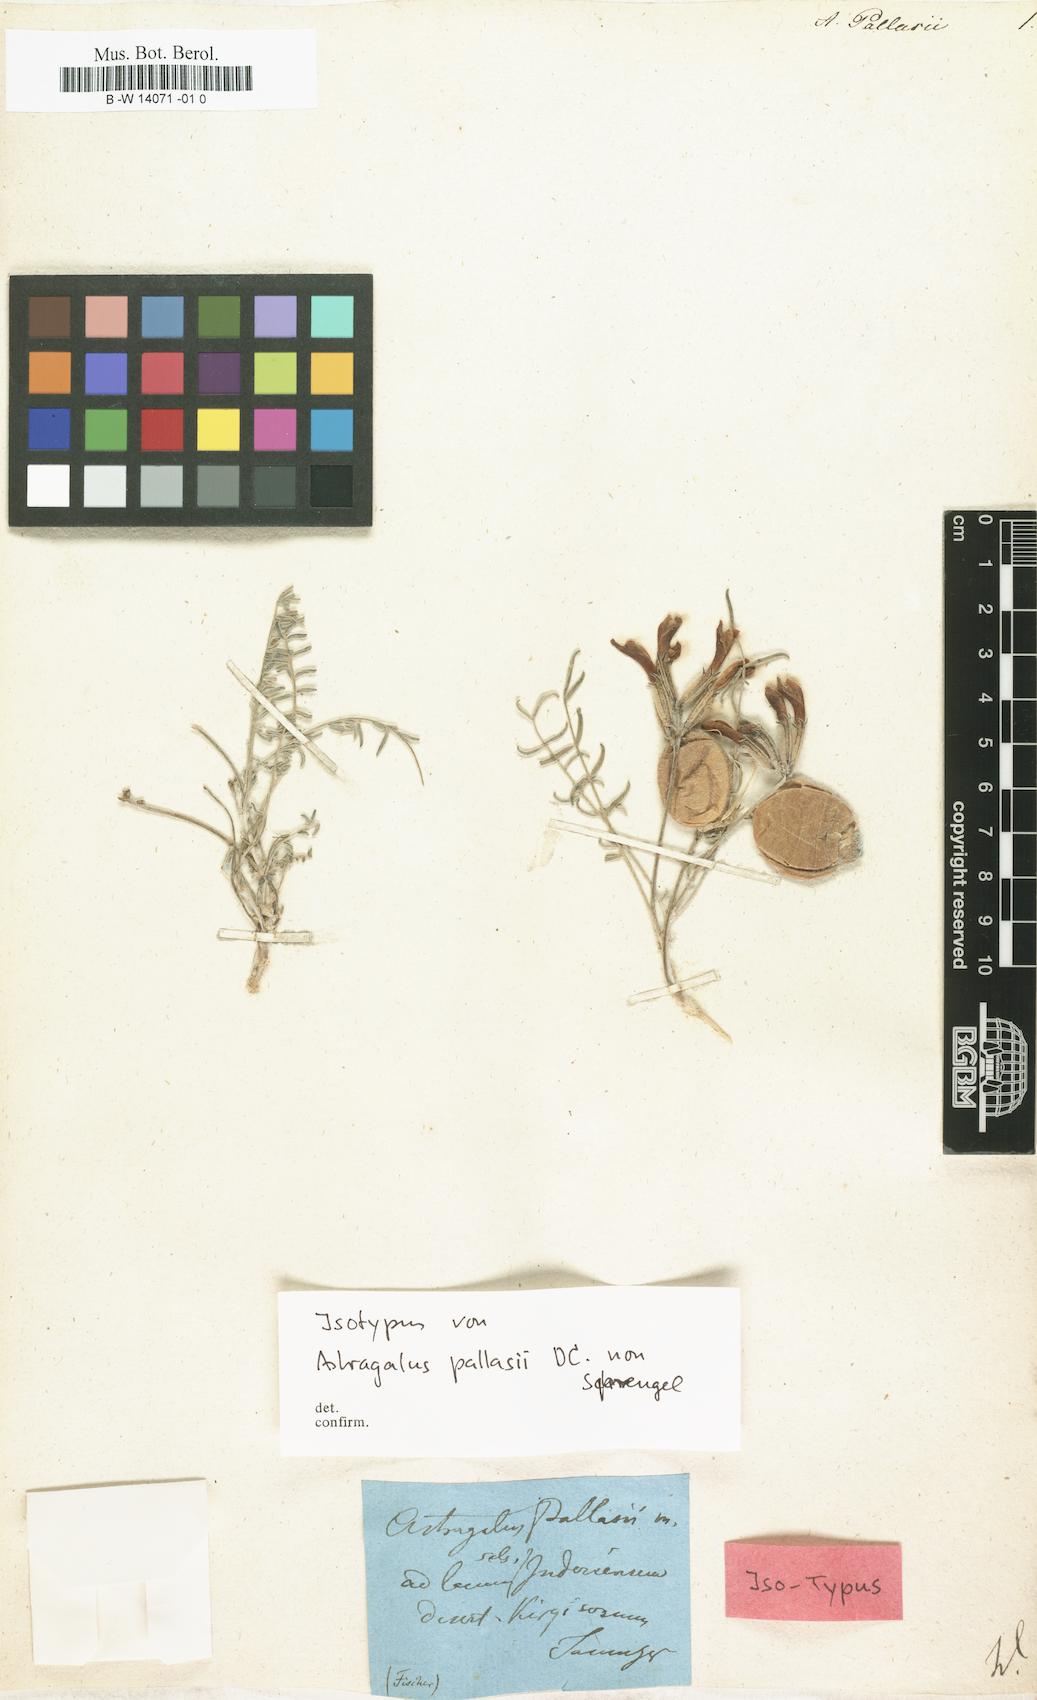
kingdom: Plantae
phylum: Tracheophyta
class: Magnoliopsida
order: Fabales
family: Fabaceae
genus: Astragalus
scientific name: Astragalus pallasii
